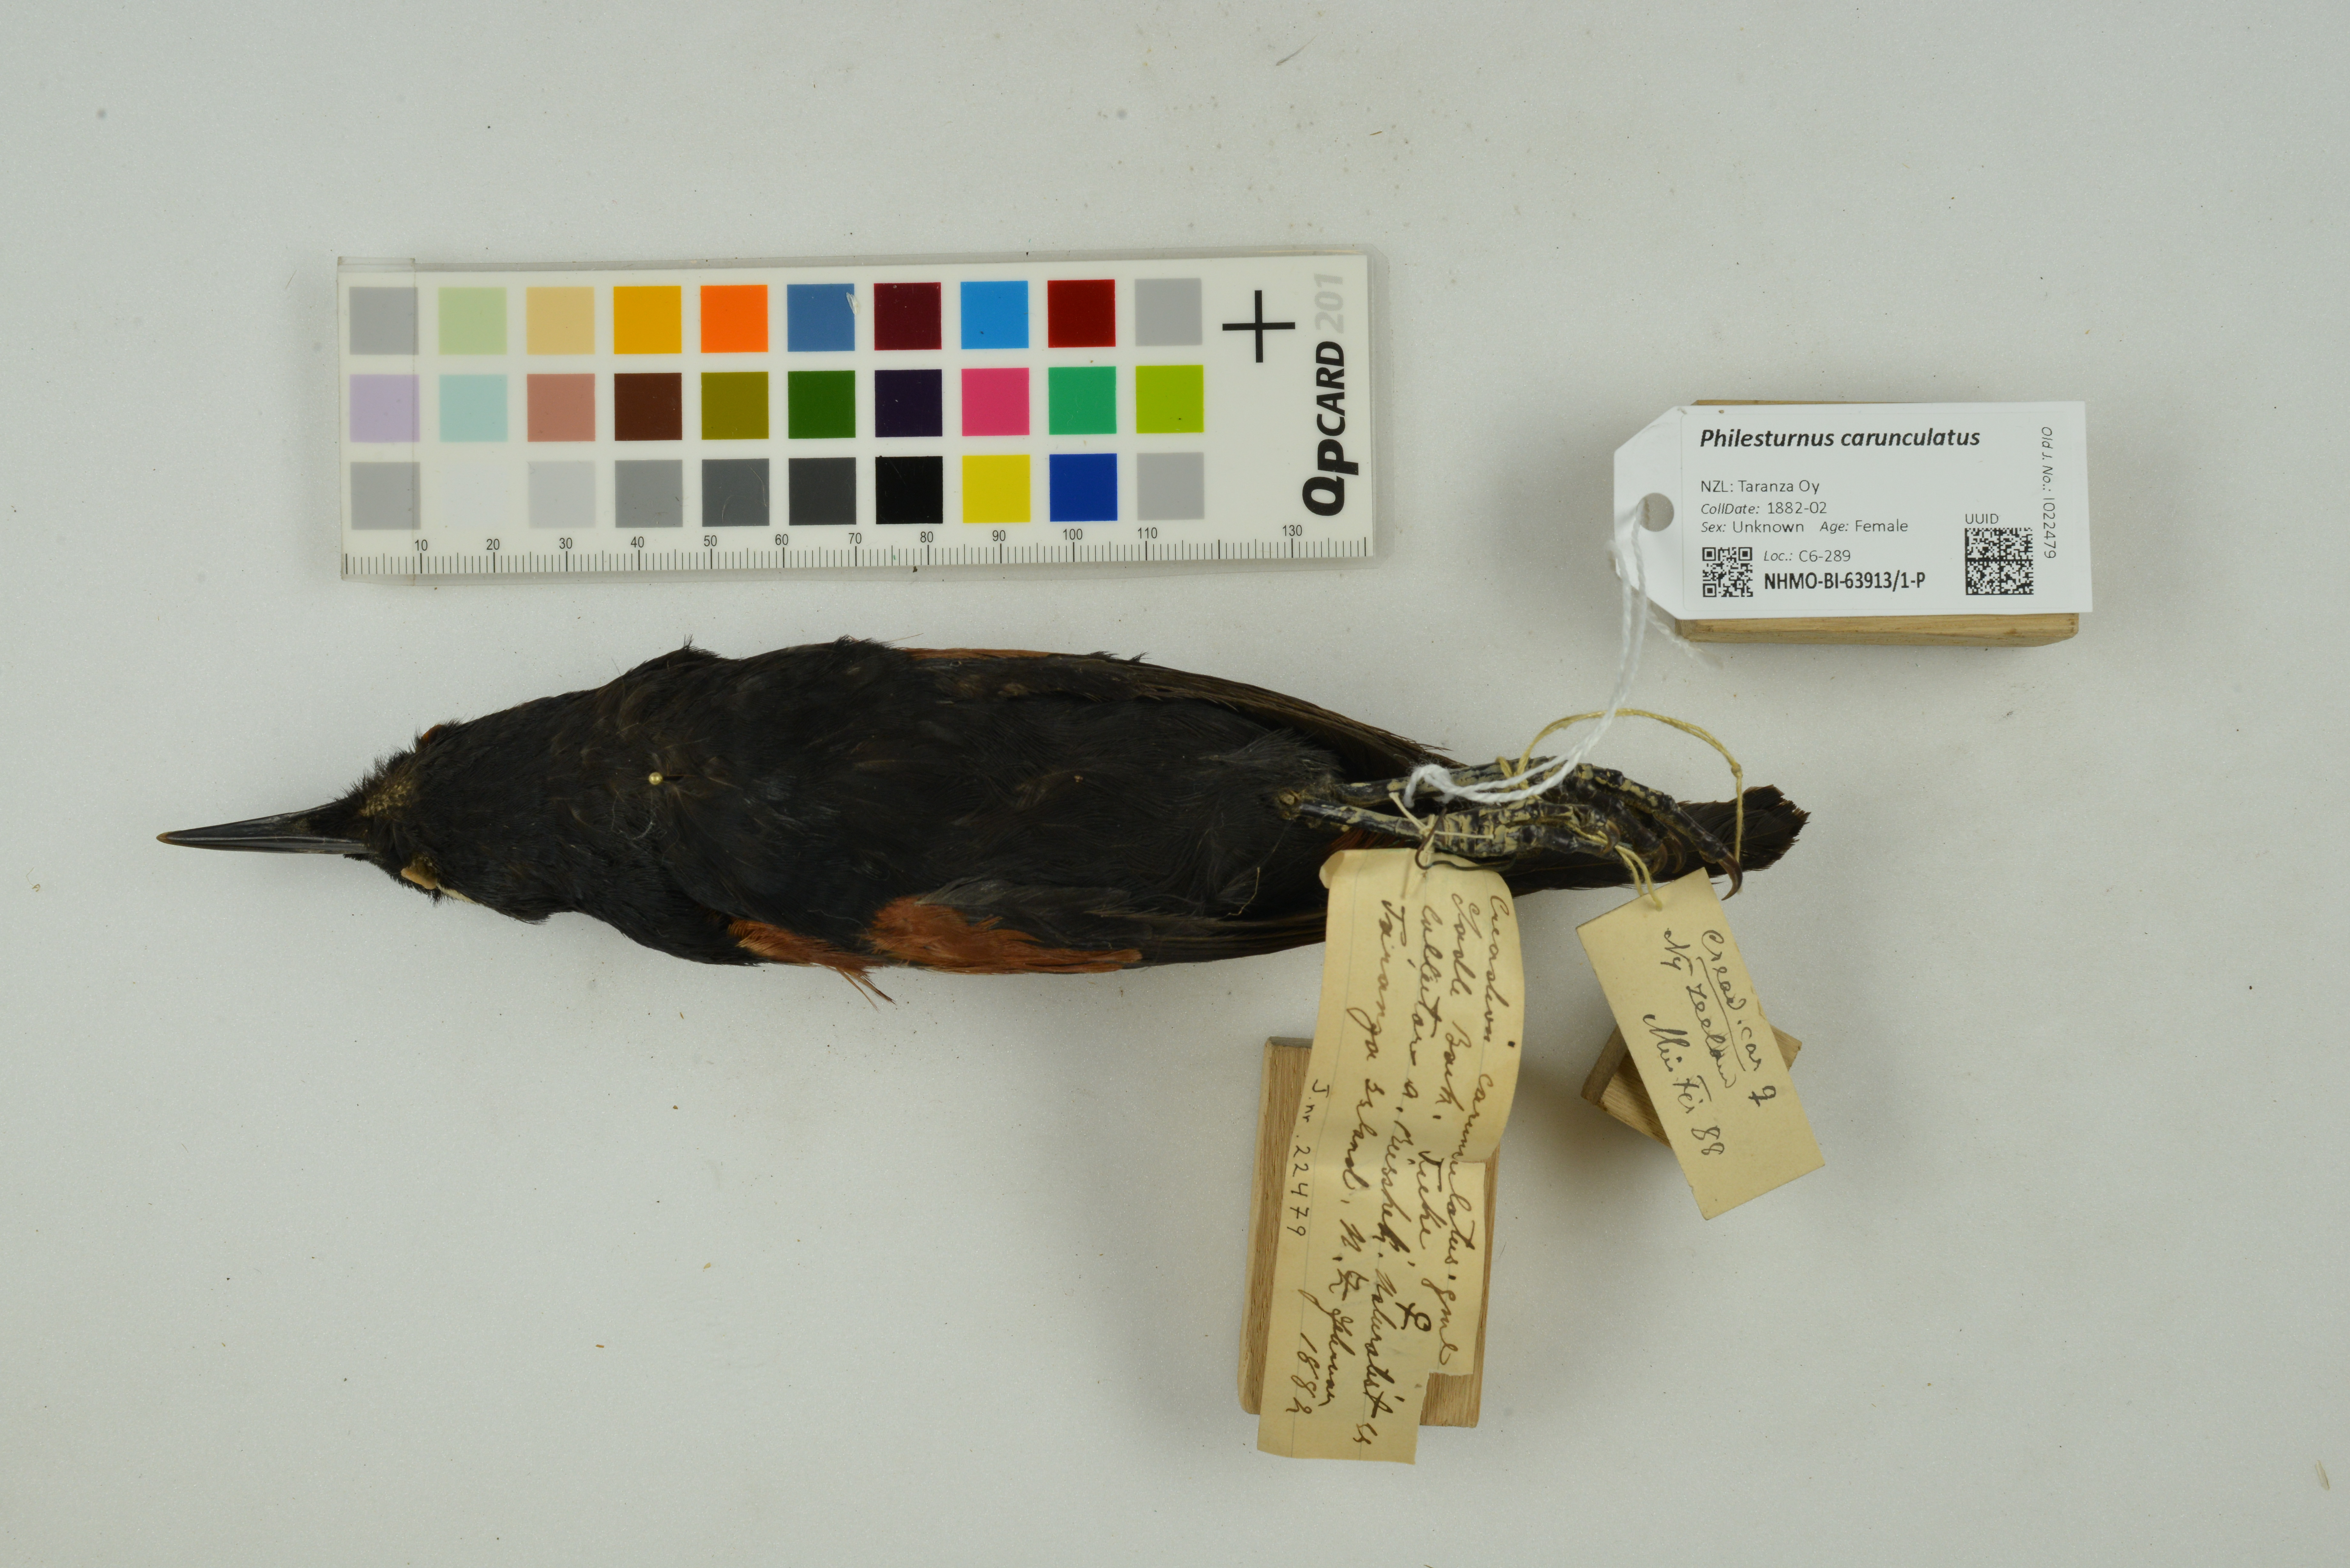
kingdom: Animalia
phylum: Chordata
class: Aves
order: Passeriformes
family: Callaeatidae
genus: Philesturnus
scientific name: Philesturnus carunculatus
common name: South island saddleback
